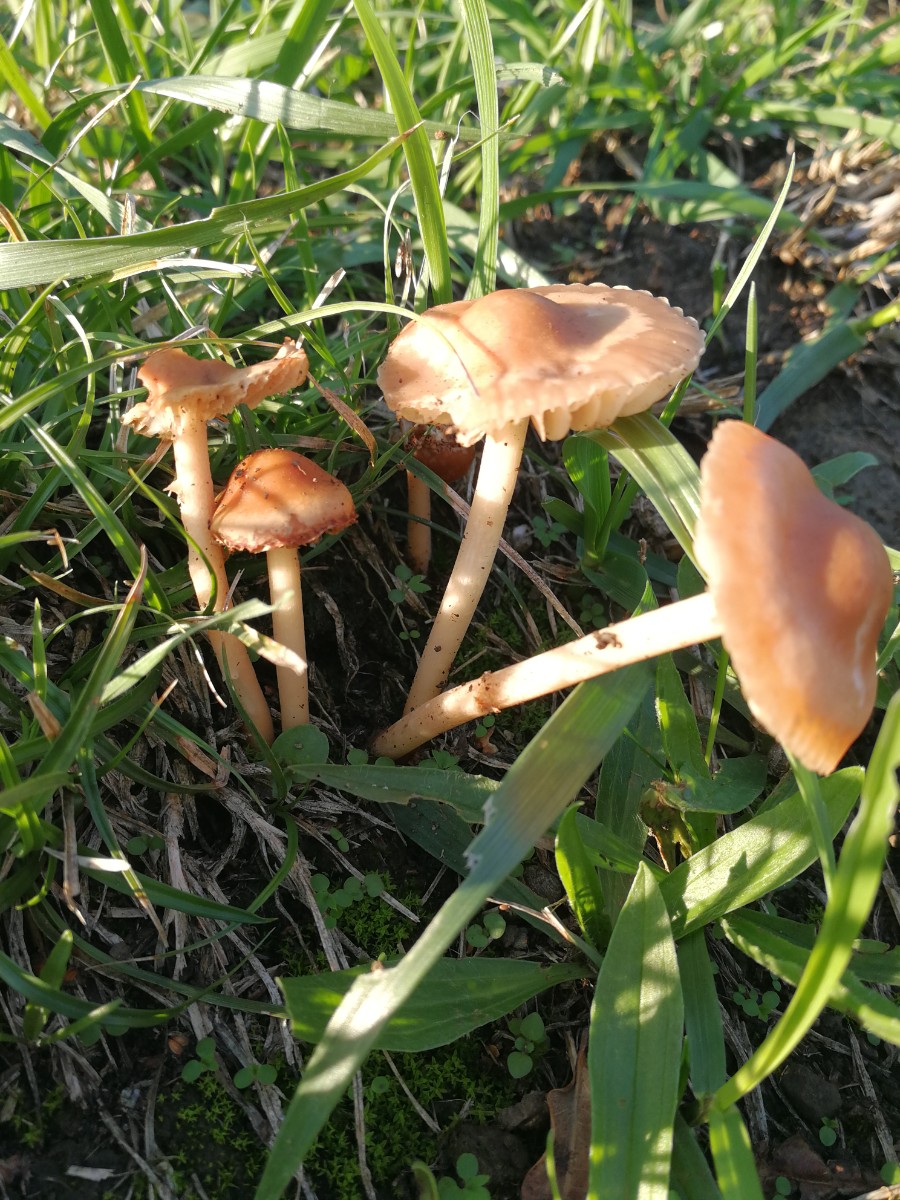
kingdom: Fungi
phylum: Basidiomycota
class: Agaricomycetes
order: Agaricales
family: Marasmiaceae
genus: Marasmius
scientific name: Marasmius oreades
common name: elledans-bruskhat
